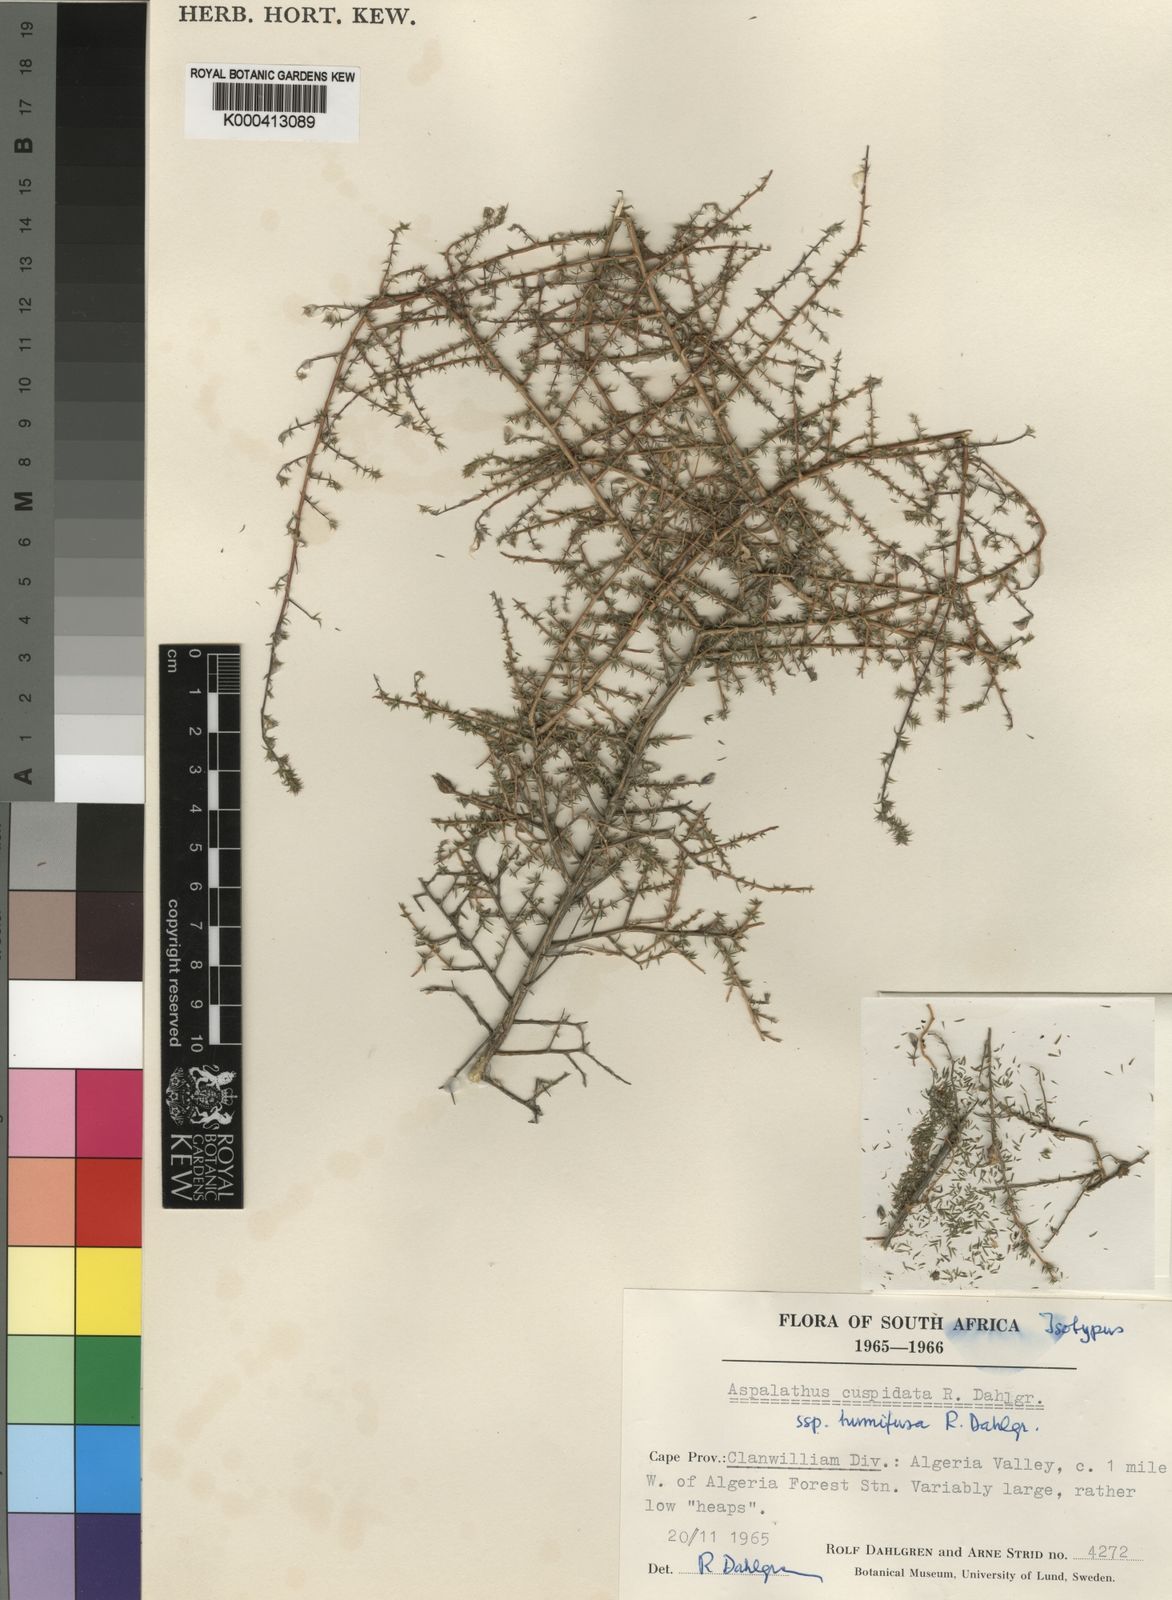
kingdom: Plantae
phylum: Tracheophyta
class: Magnoliopsida
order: Fabales
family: Fabaceae
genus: Aspalathus
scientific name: Aspalathus cuspidata
